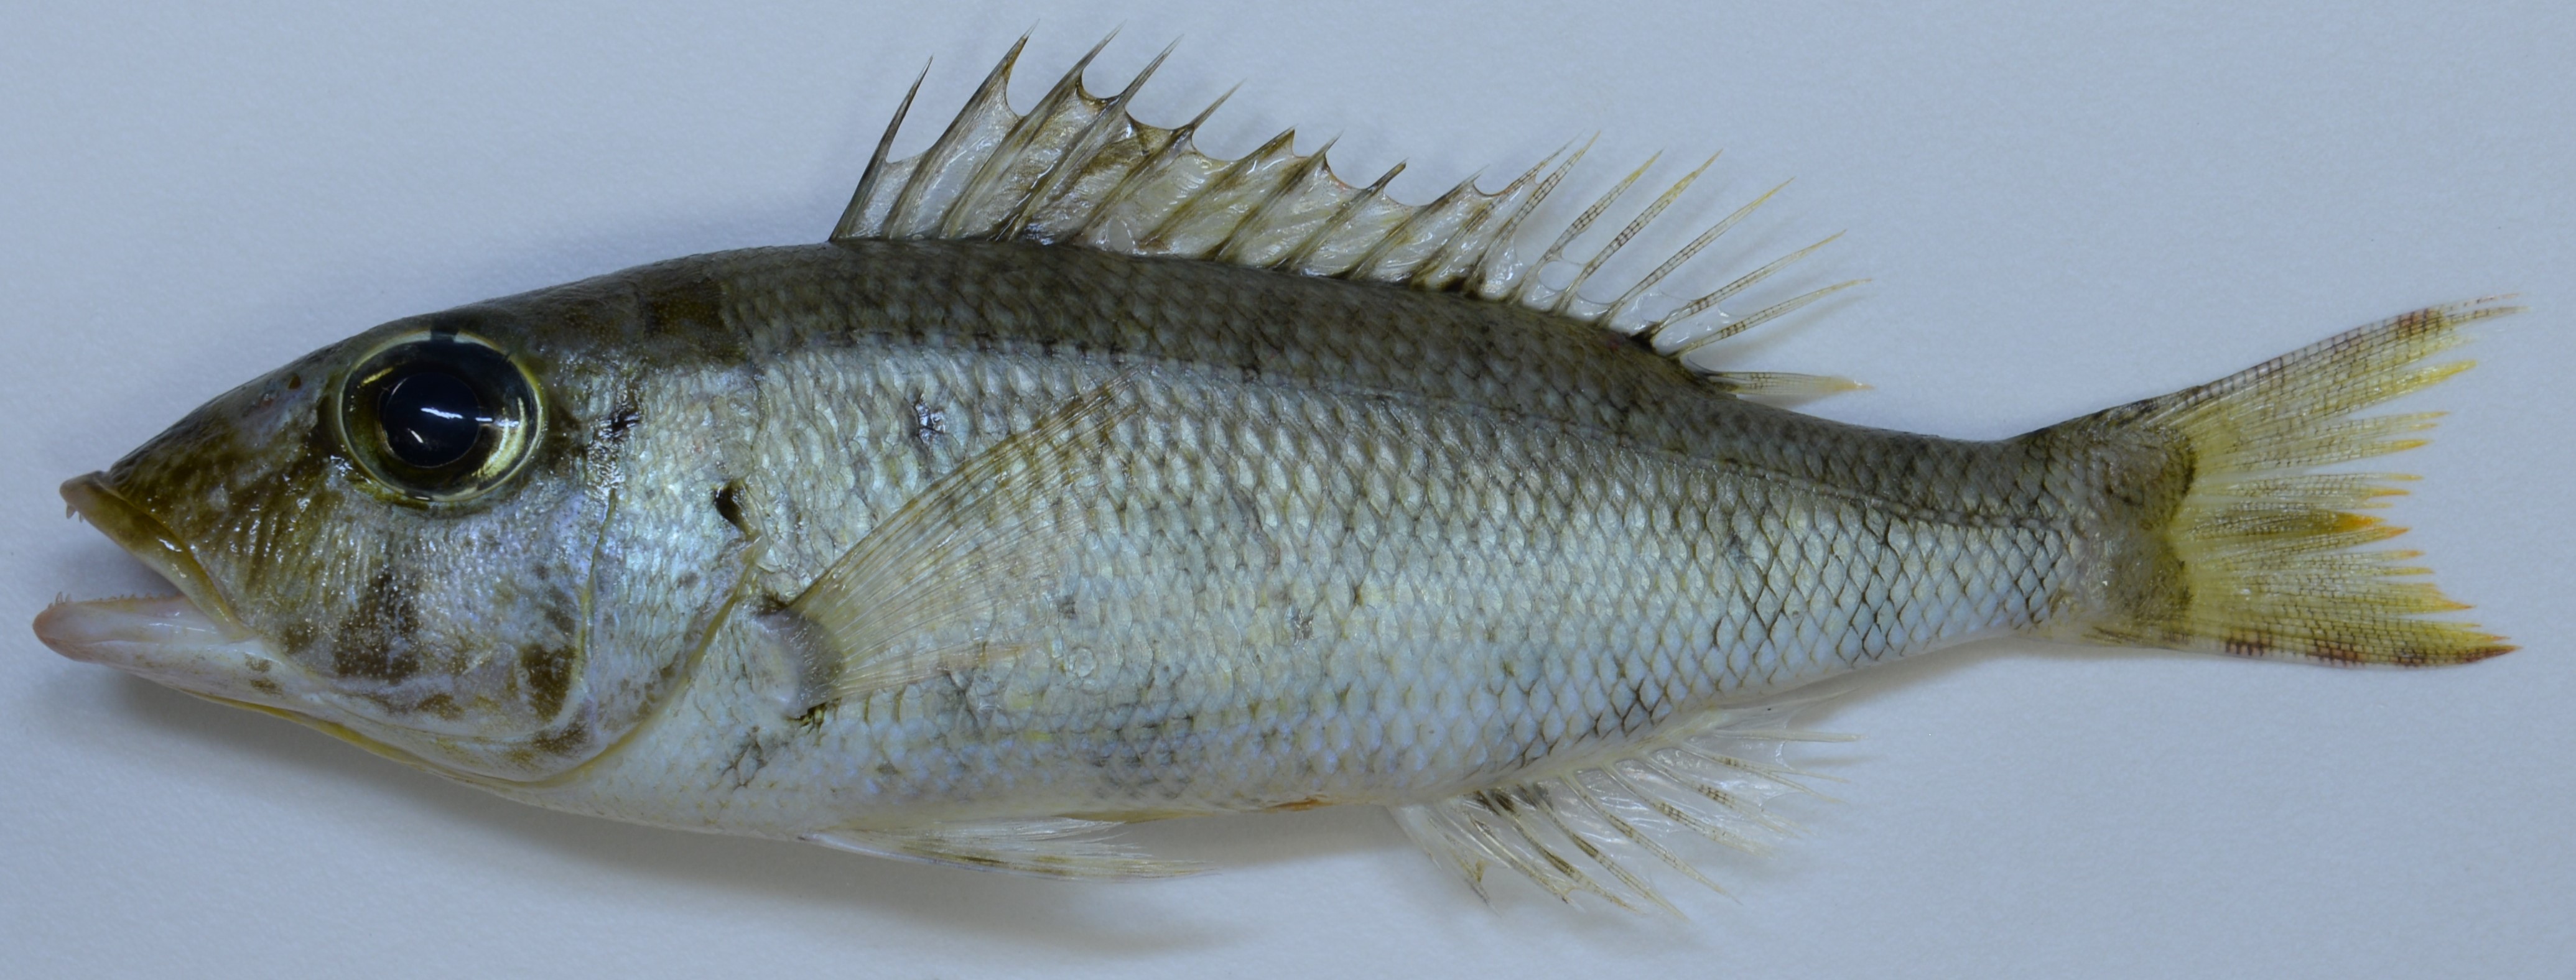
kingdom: Animalia
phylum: Chordata
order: Perciformes
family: Lethrinidae
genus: Lethrinus
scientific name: Lethrinus
